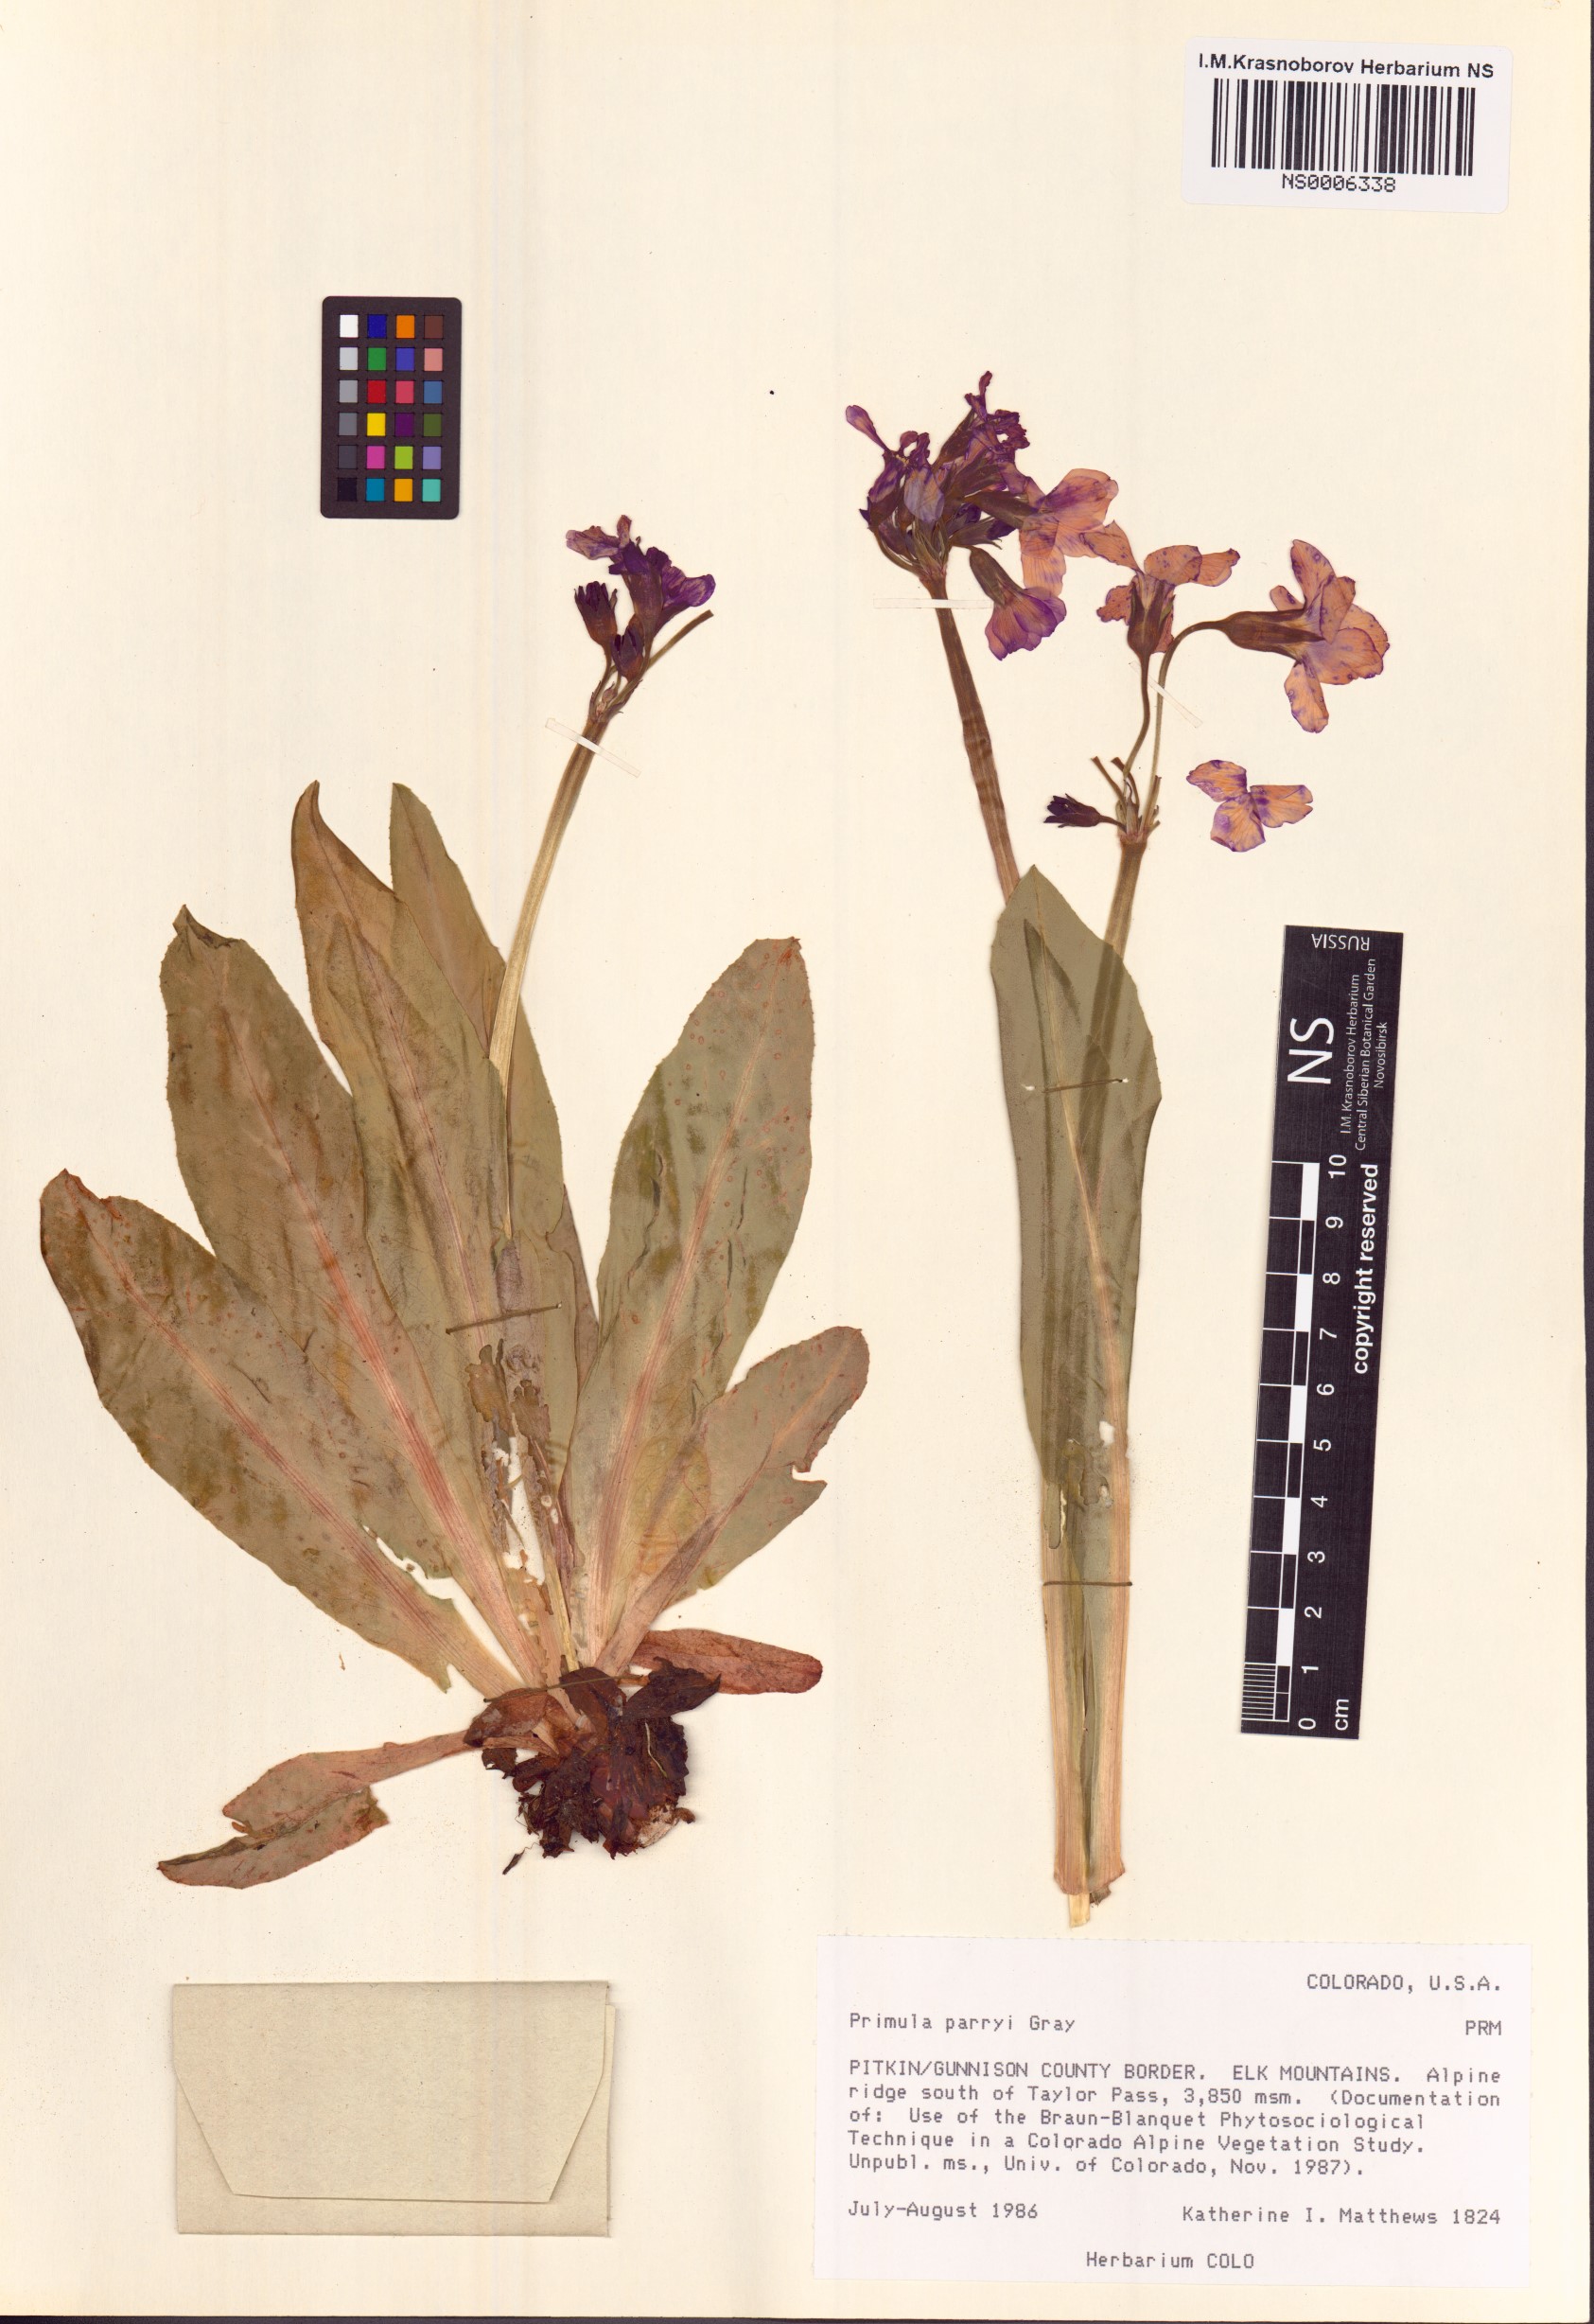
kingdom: Plantae
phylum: Tracheophyta
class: Magnoliopsida
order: Ericales
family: Primulaceae
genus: Primula
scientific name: Primula parryi
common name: Parry's primrose
